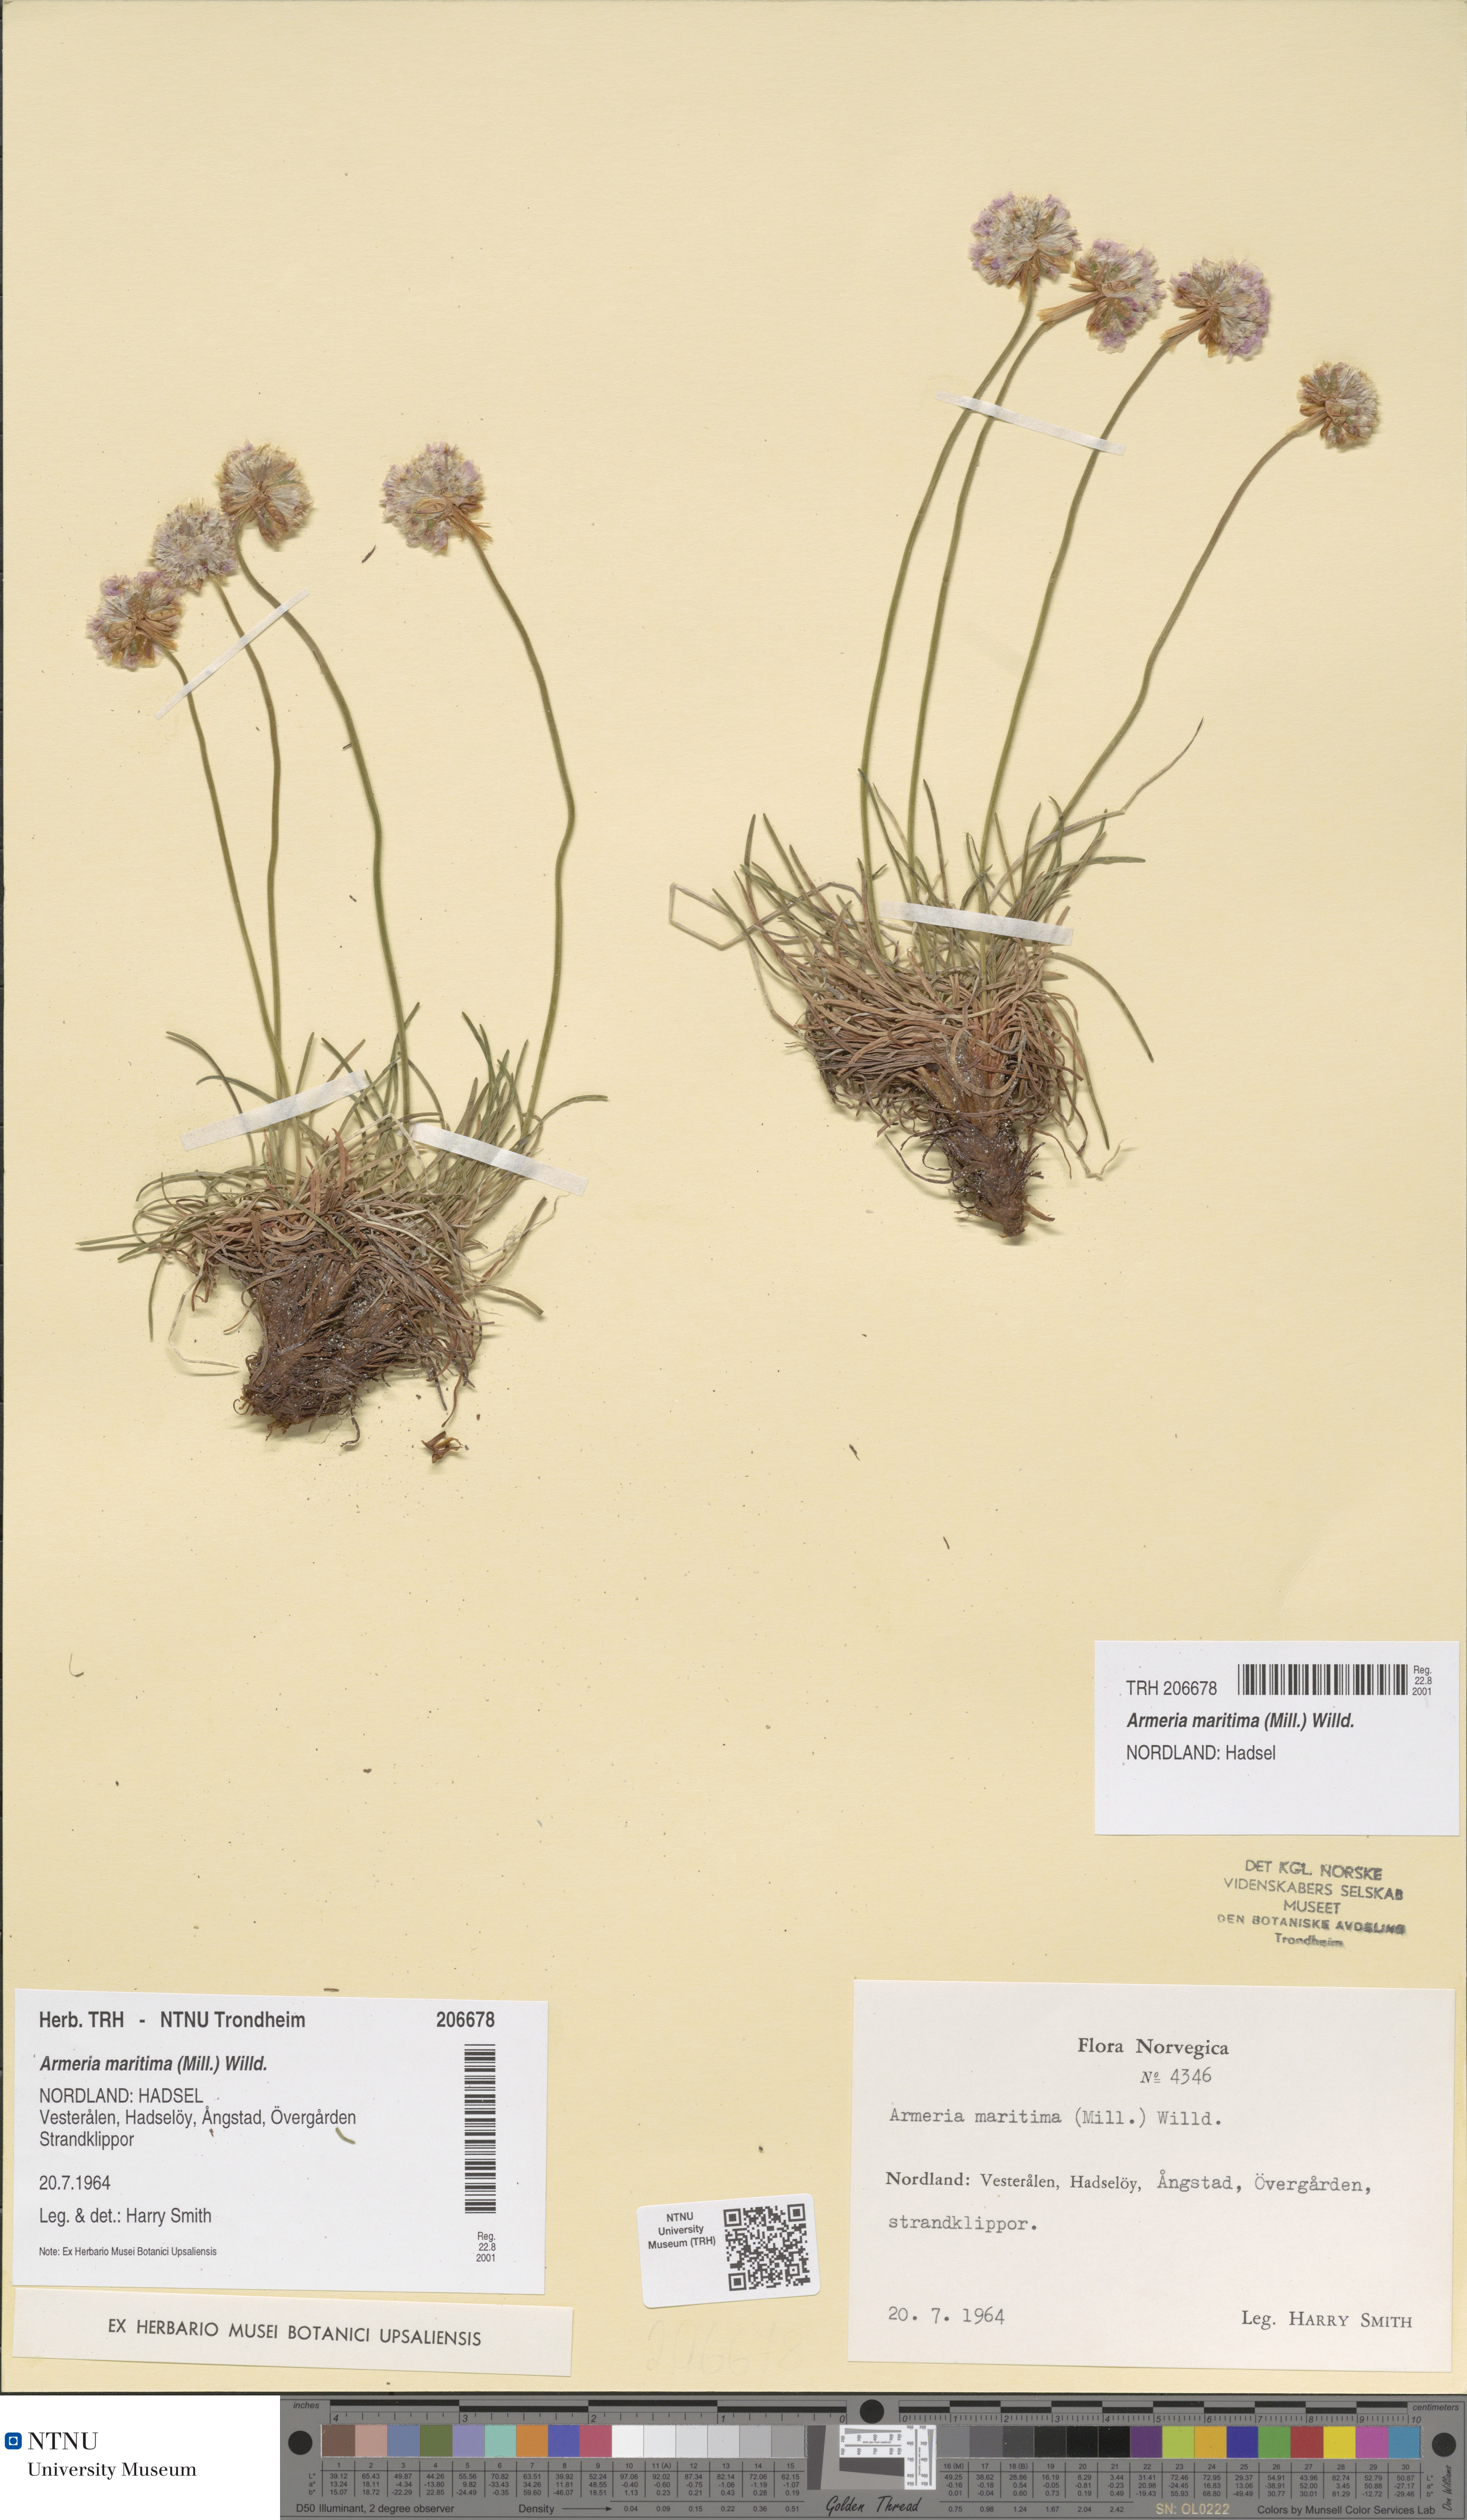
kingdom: Plantae
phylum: Tracheophyta
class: Magnoliopsida
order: Caryophyllales
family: Plumbaginaceae
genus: Armeria
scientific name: Armeria maritima
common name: Thrift
